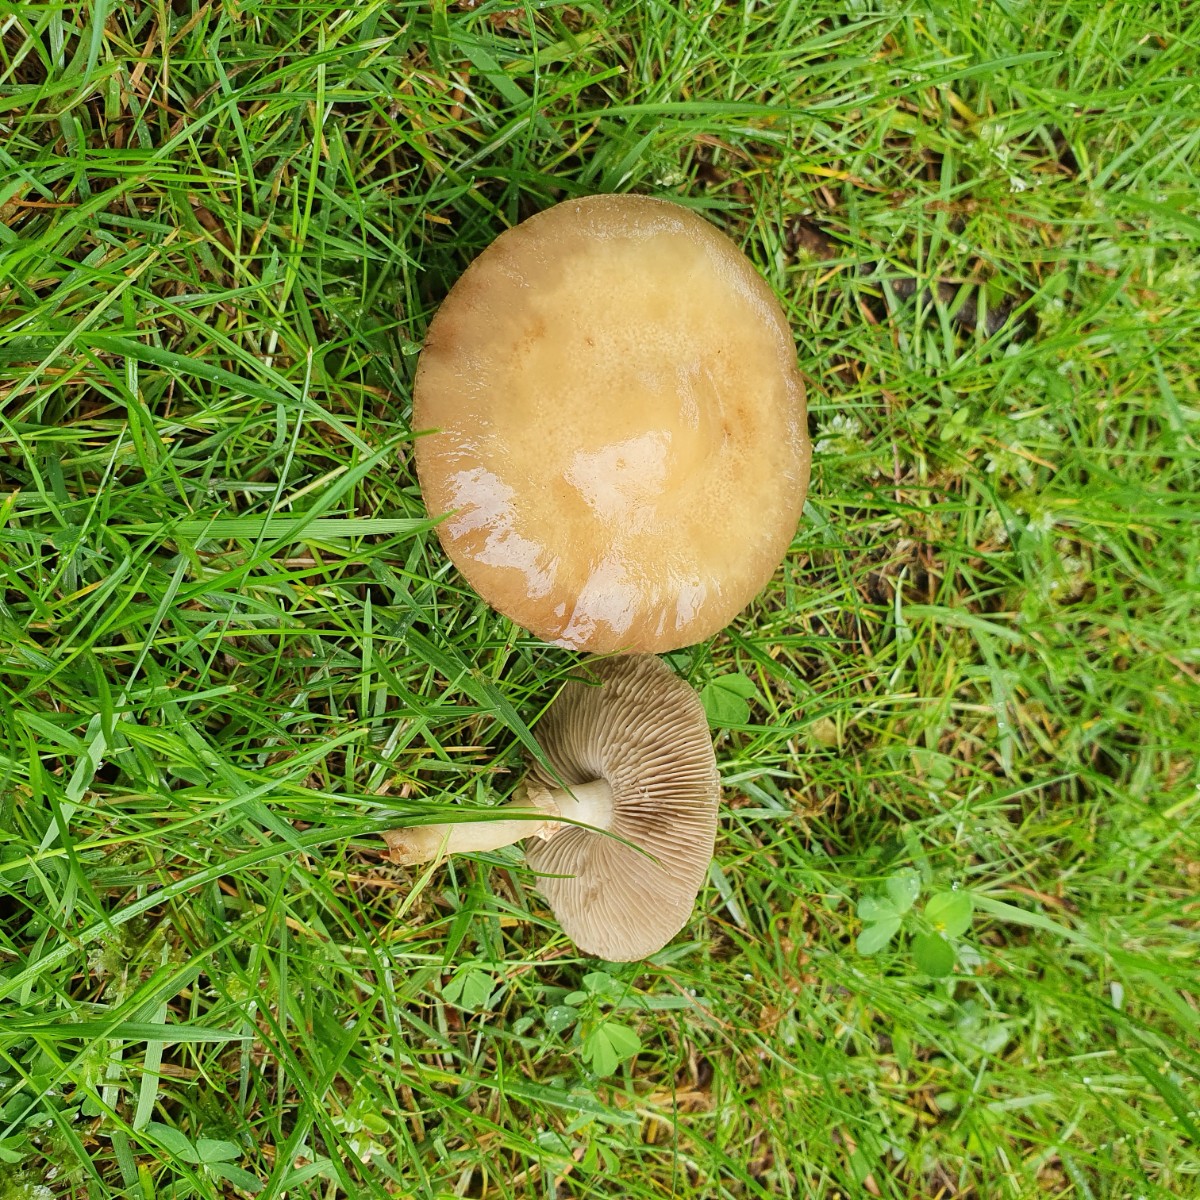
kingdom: Fungi
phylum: Basidiomycota
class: Agaricomycetes
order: Agaricales
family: Strophariaceae
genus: Agrocybe
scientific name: Agrocybe praecox
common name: tidlig agerhat
